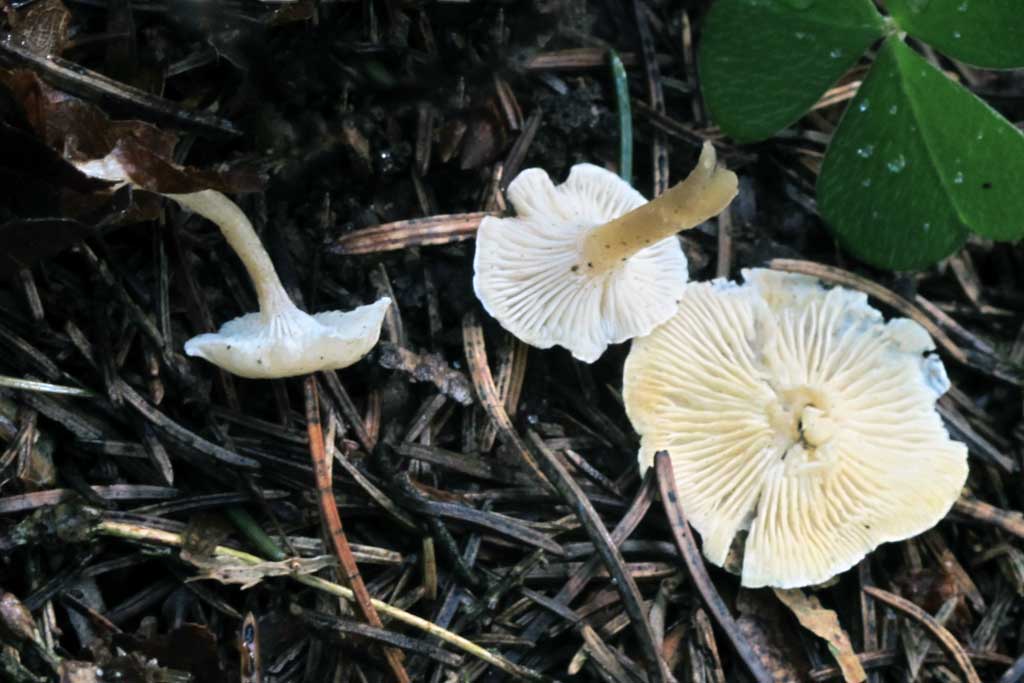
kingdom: Fungi
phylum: Basidiomycota
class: Agaricomycetes
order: Agaricales
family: Tricholomataceae
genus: Leucocybe
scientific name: Leucocybe candicans
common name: kridt-tragthat
